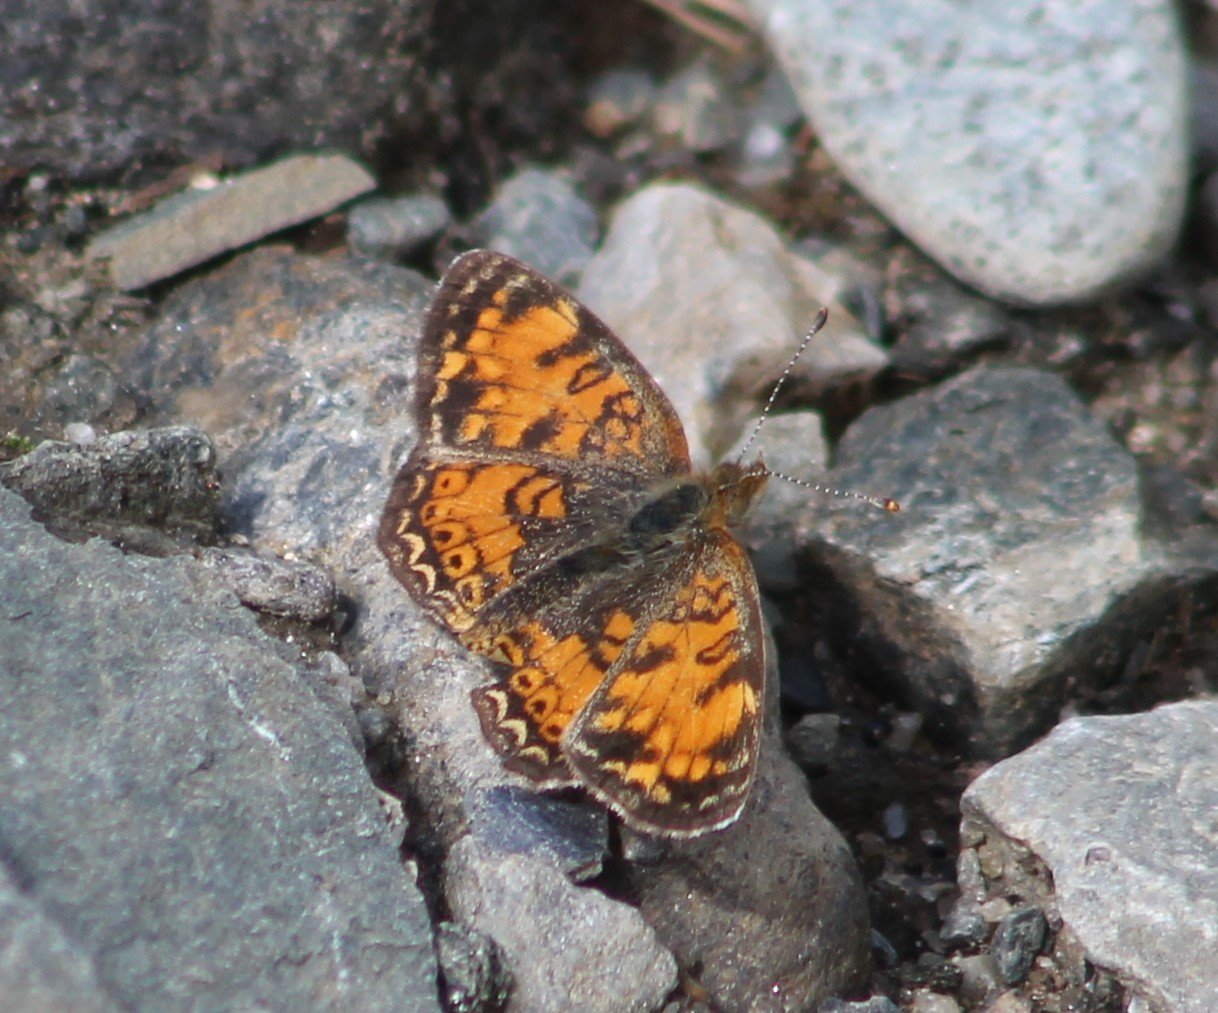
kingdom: Animalia
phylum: Arthropoda
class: Insecta
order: Lepidoptera
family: Nymphalidae
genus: Phyciodes
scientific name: Phyciodes tharos
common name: Pearl Crescent
